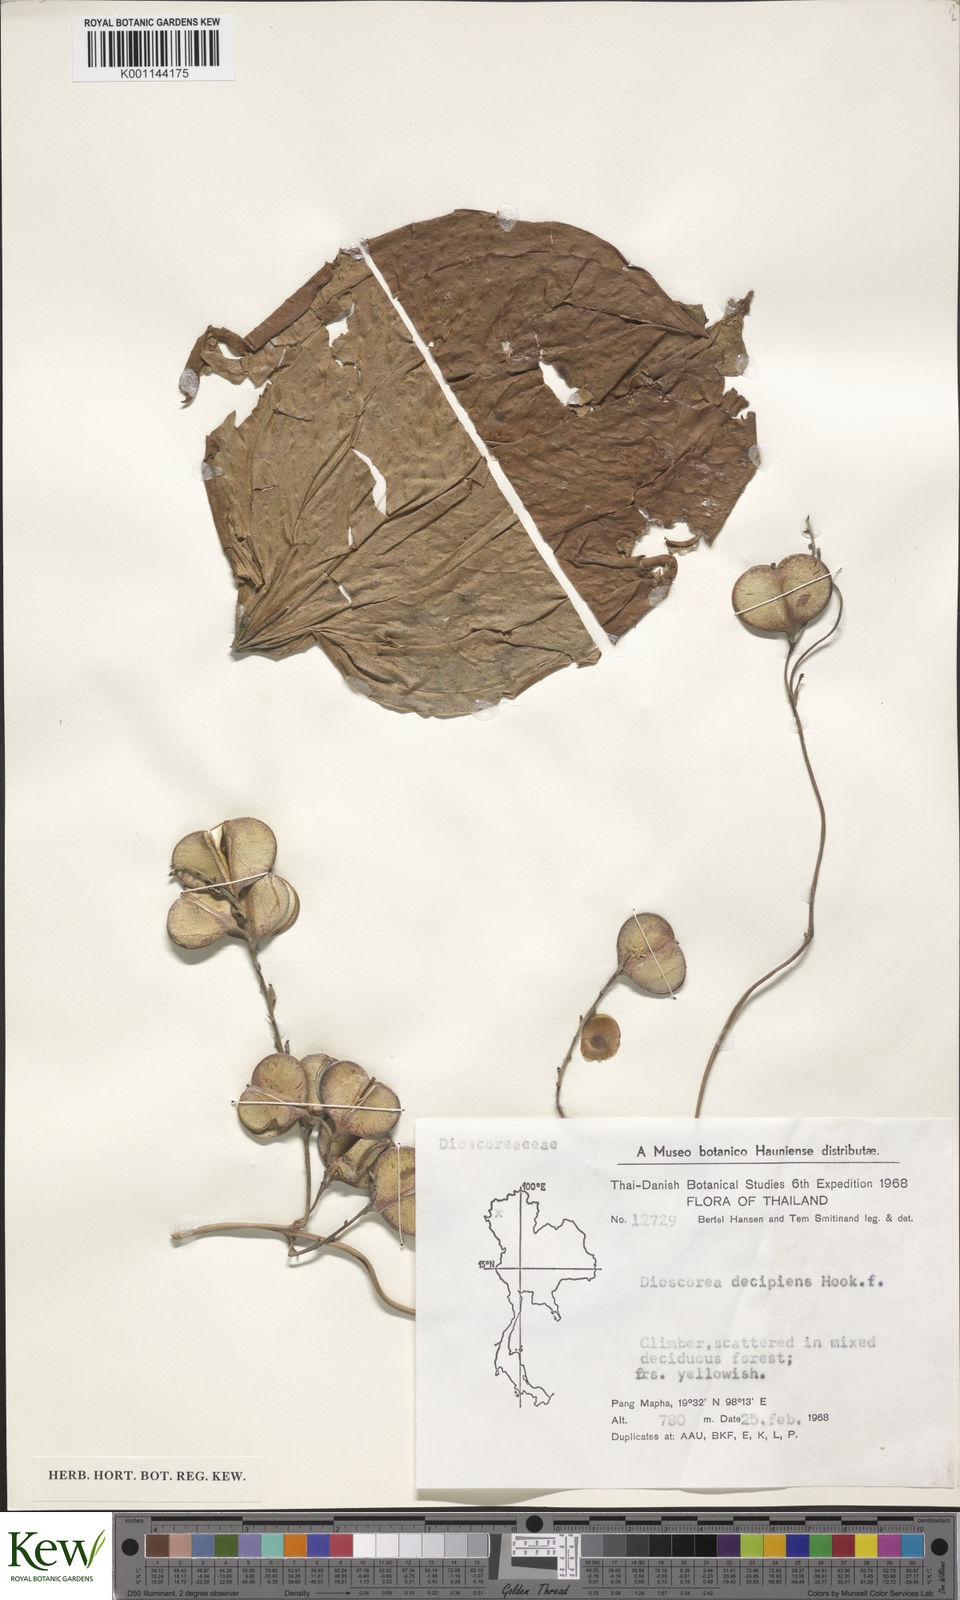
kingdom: Plantae
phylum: Tracheophyta
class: Liliopsida
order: Dioscoreales
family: Dioscoreaceae
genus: Dioscorea
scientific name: Dioscorea decipiens
